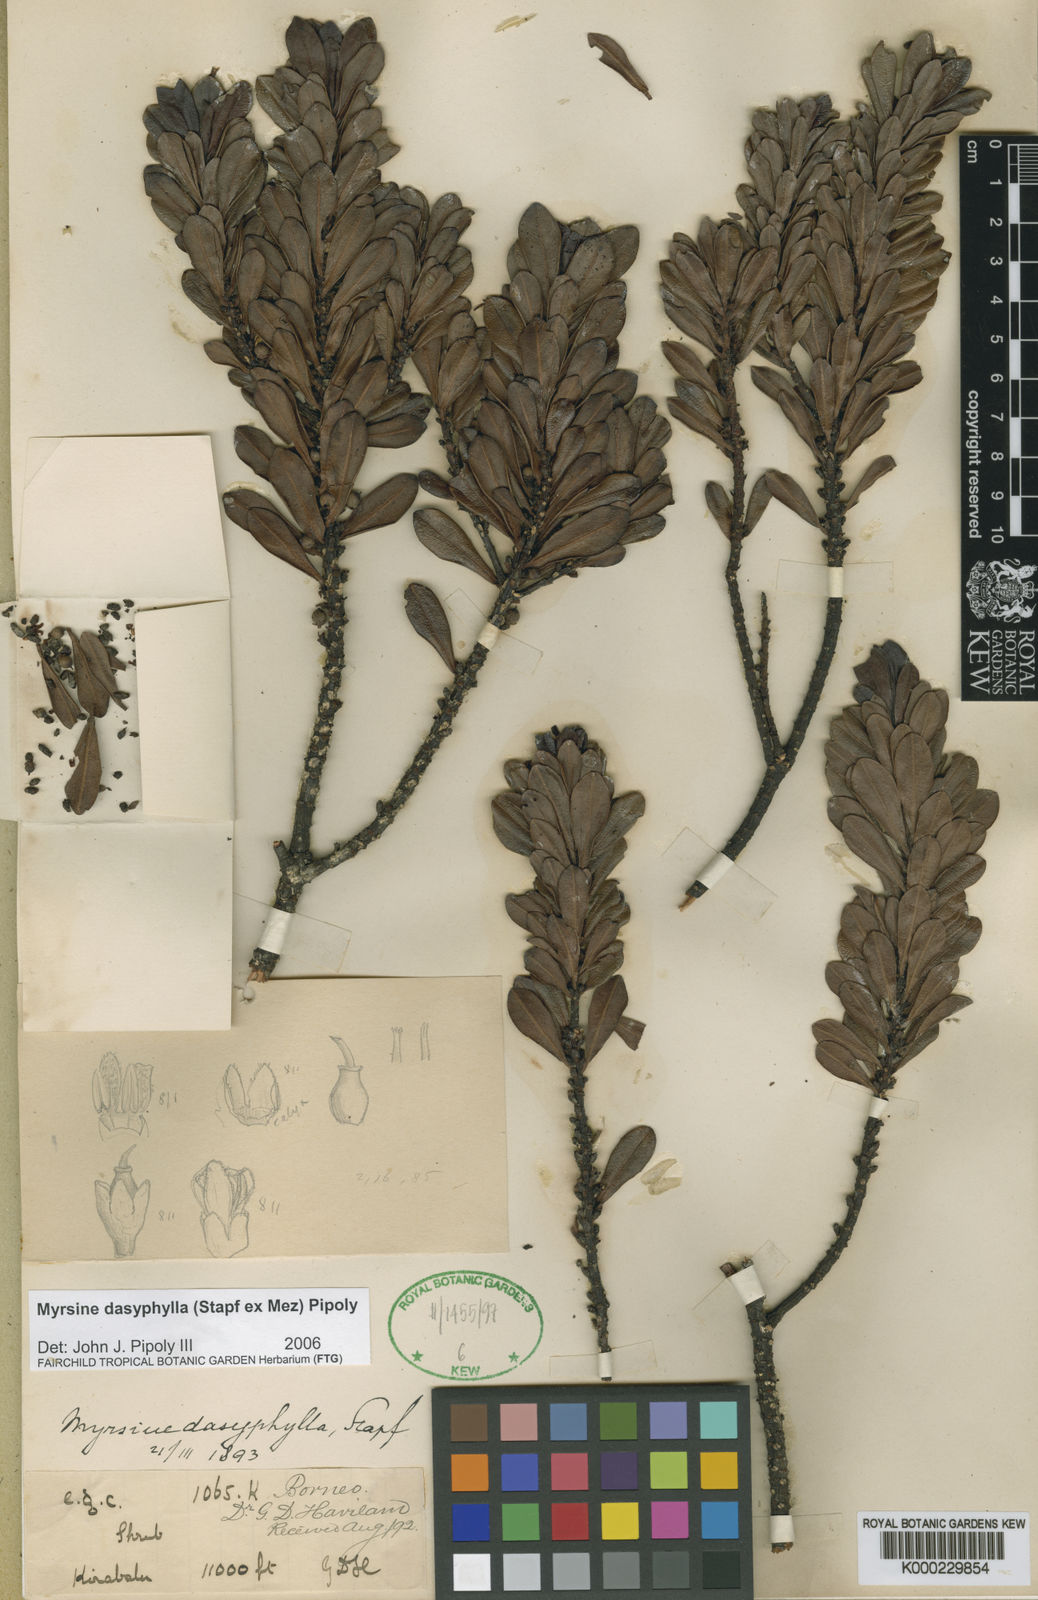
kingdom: Plantae
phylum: Tracheophyta
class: Magnoliopsida
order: Ericales
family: Primulaceae
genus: Myrsine
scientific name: Myrsine dasyphylla
